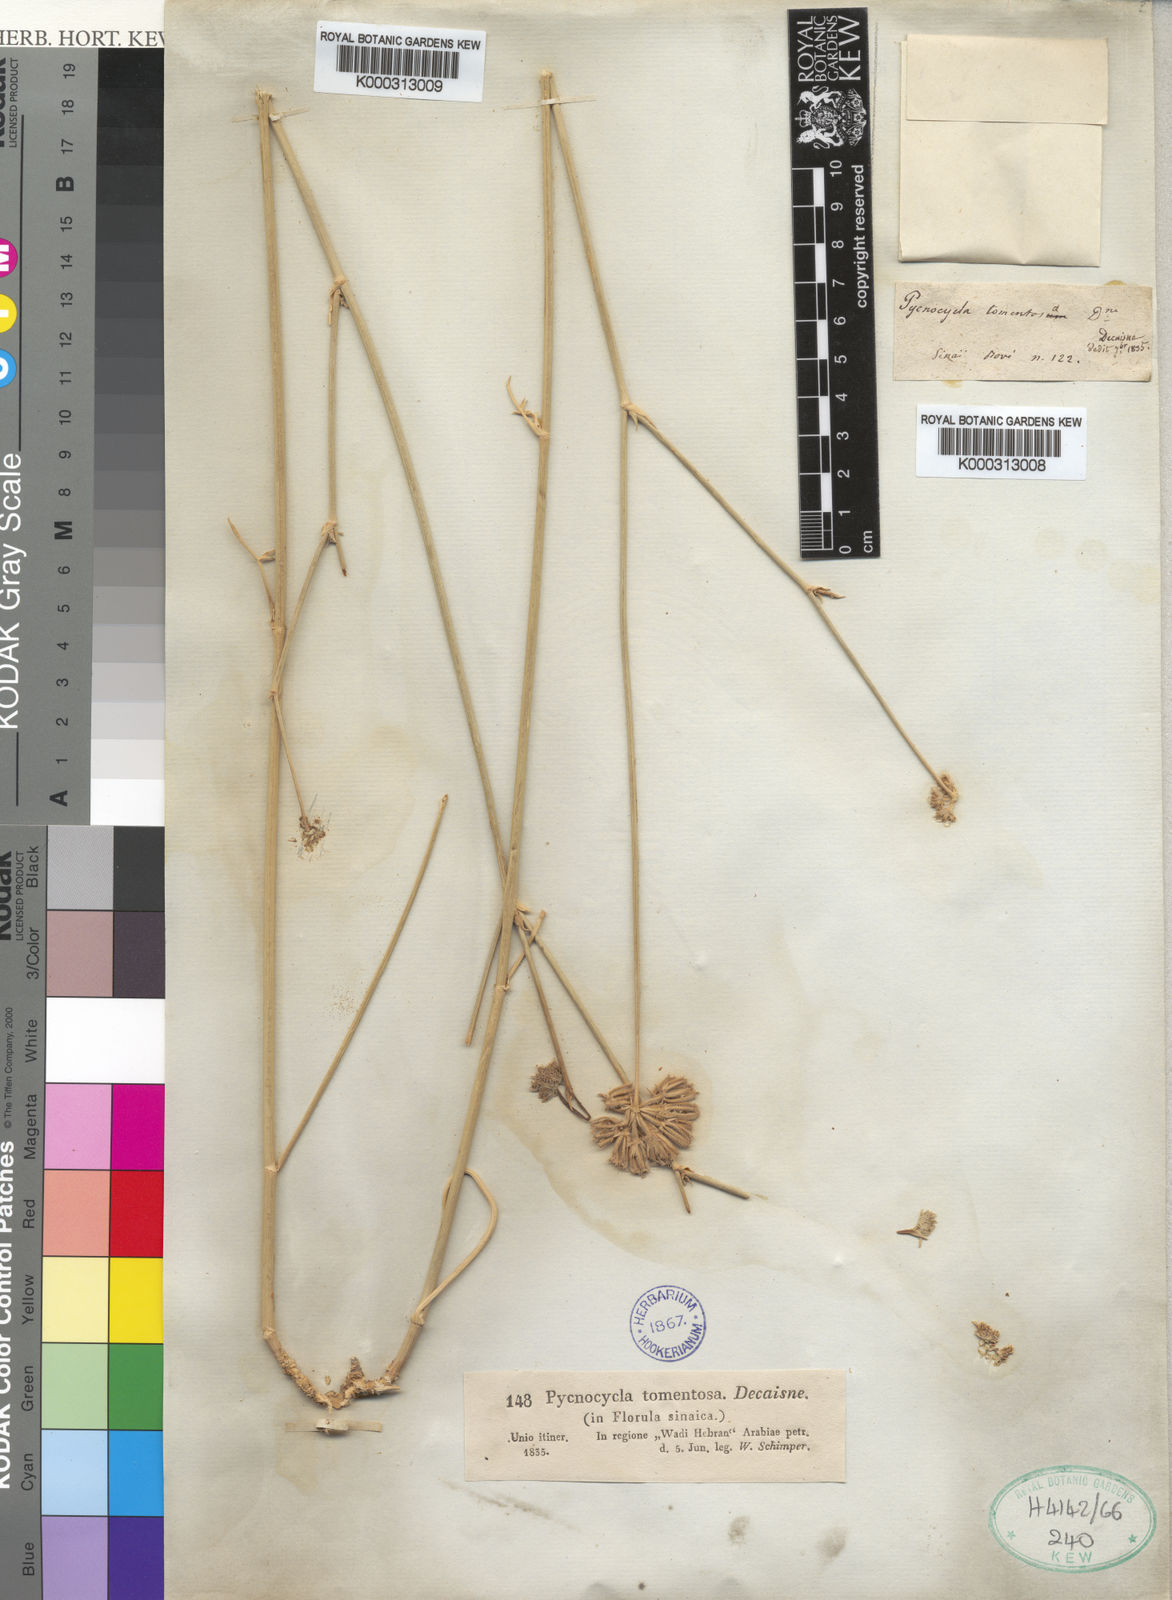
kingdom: Plantae
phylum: Tracheophyta
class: Magnoliopsida
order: Apiales
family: Apiaceae
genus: Pycnocycla
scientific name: Pycnocycla tomentosa
